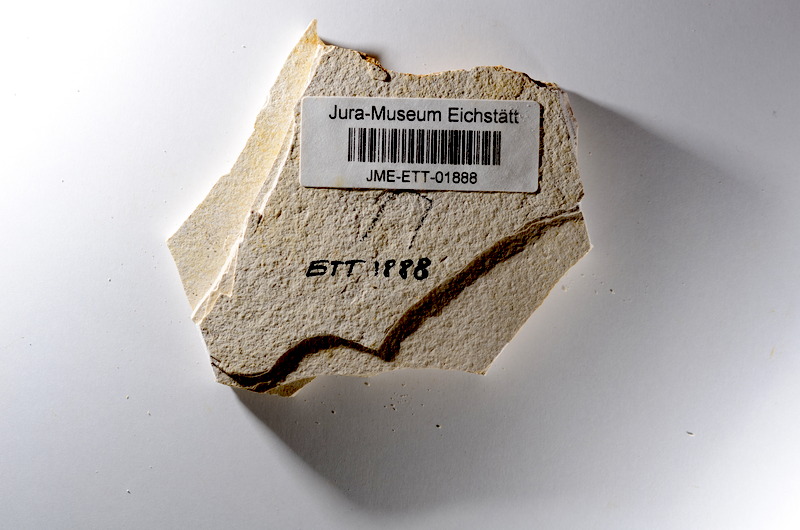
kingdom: Animalia
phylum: Chordata
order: Salmoniformes
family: Orthogonikleithridae
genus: Orthogonikleithrus
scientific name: Orthogonikleithrus hoelli
